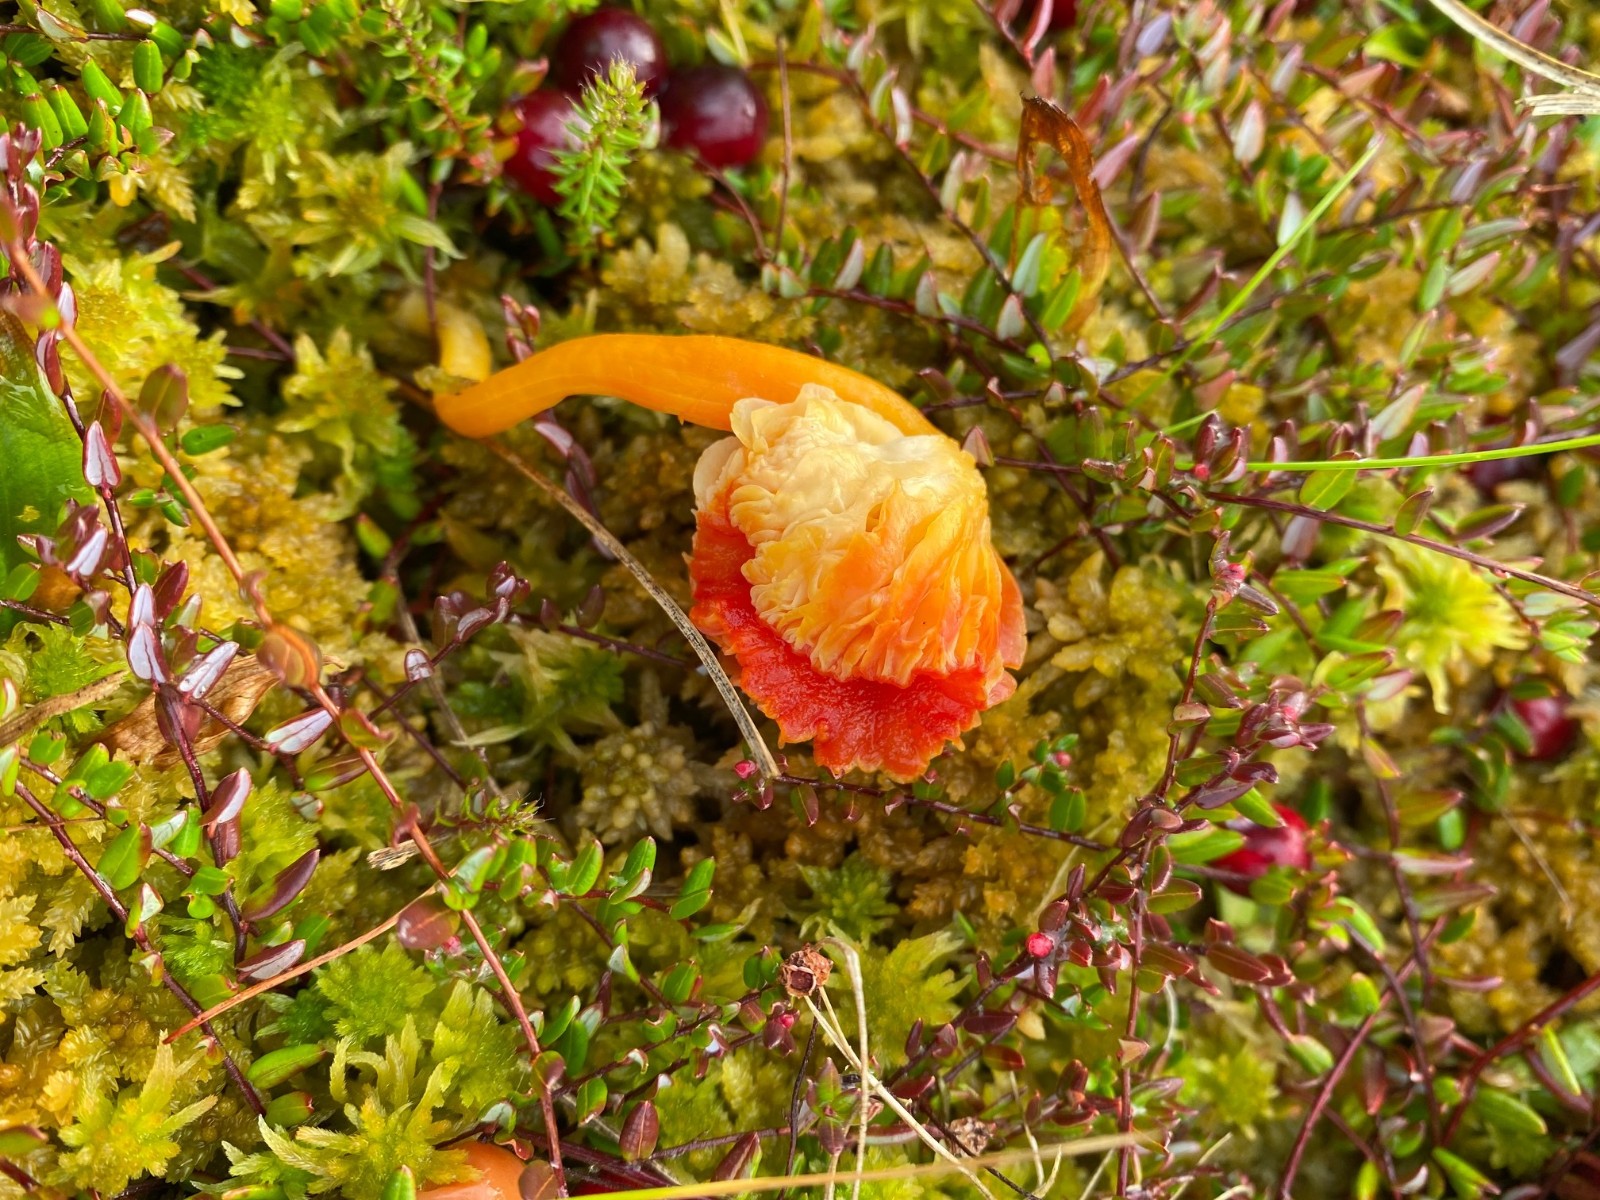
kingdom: Fungi
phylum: Basidiomycota
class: Agaricomycetes
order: Agaricales
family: Hygrophoraceae
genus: Hygrocybe
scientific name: Hygrocybe
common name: vokshat
